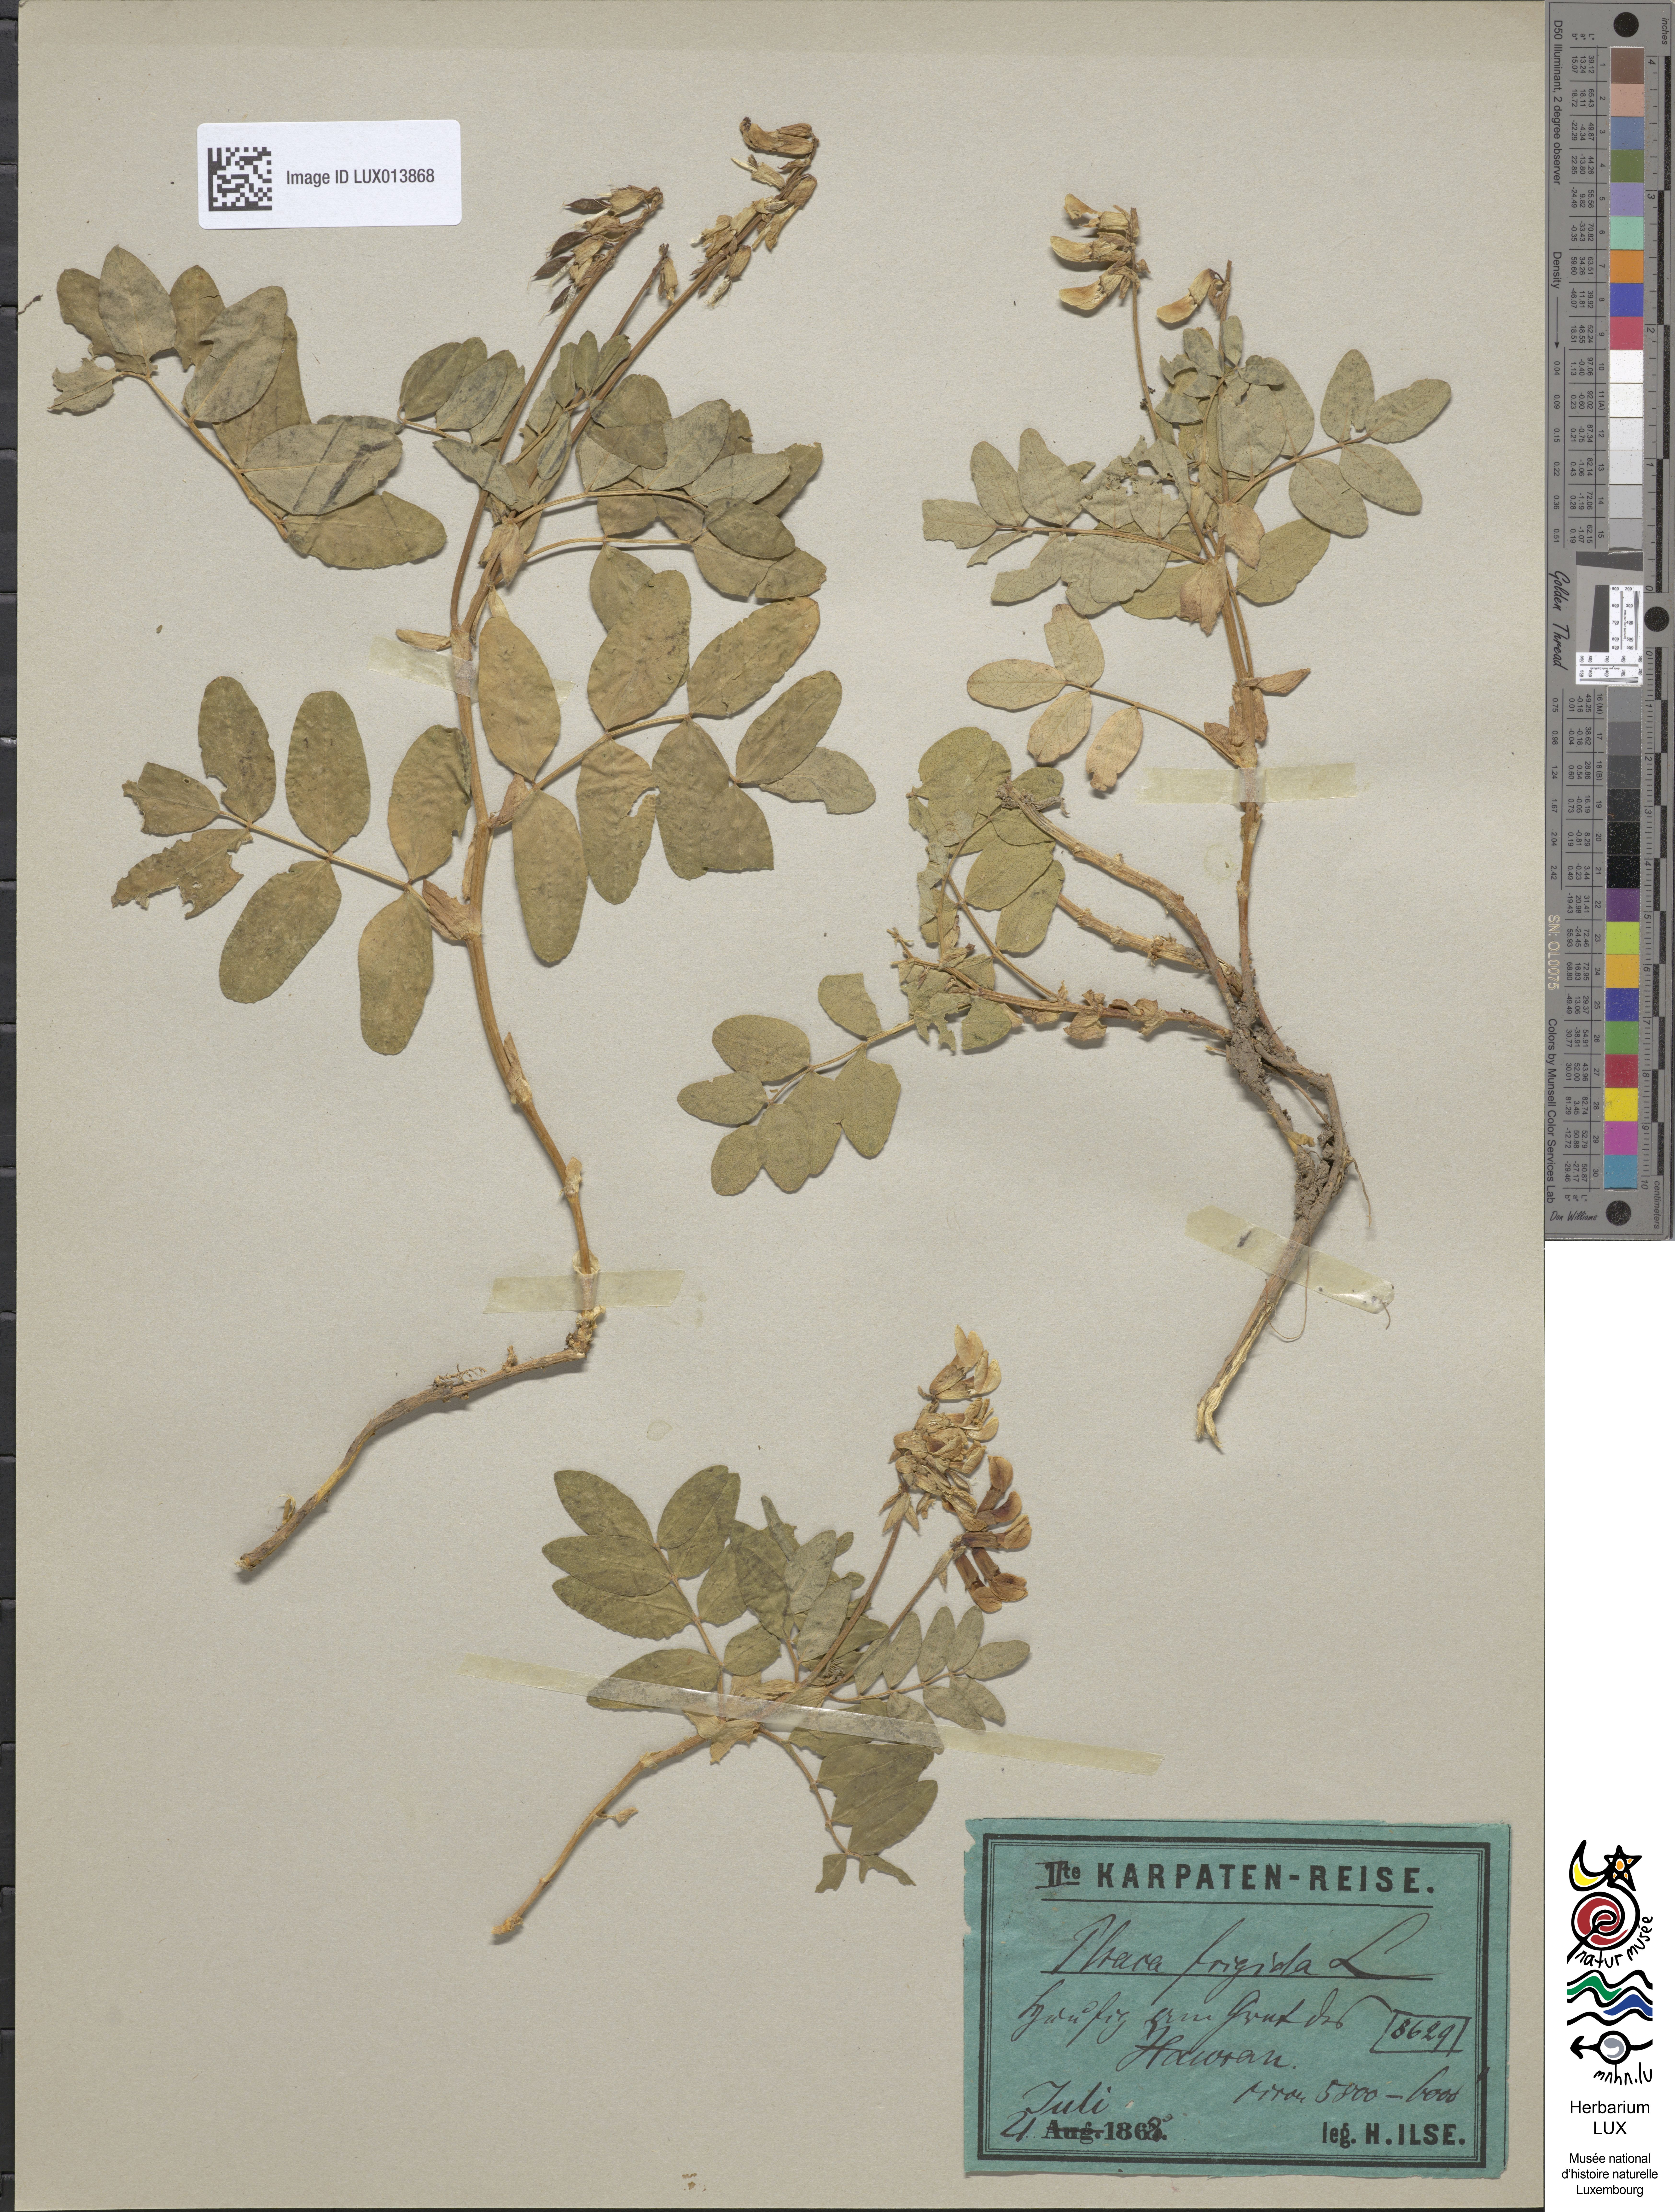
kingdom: Plantae
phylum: Tracheophyta
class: Magnoliopsida
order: Fabales
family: Fabaceae
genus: Astragalus
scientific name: Astragalus frigidus
